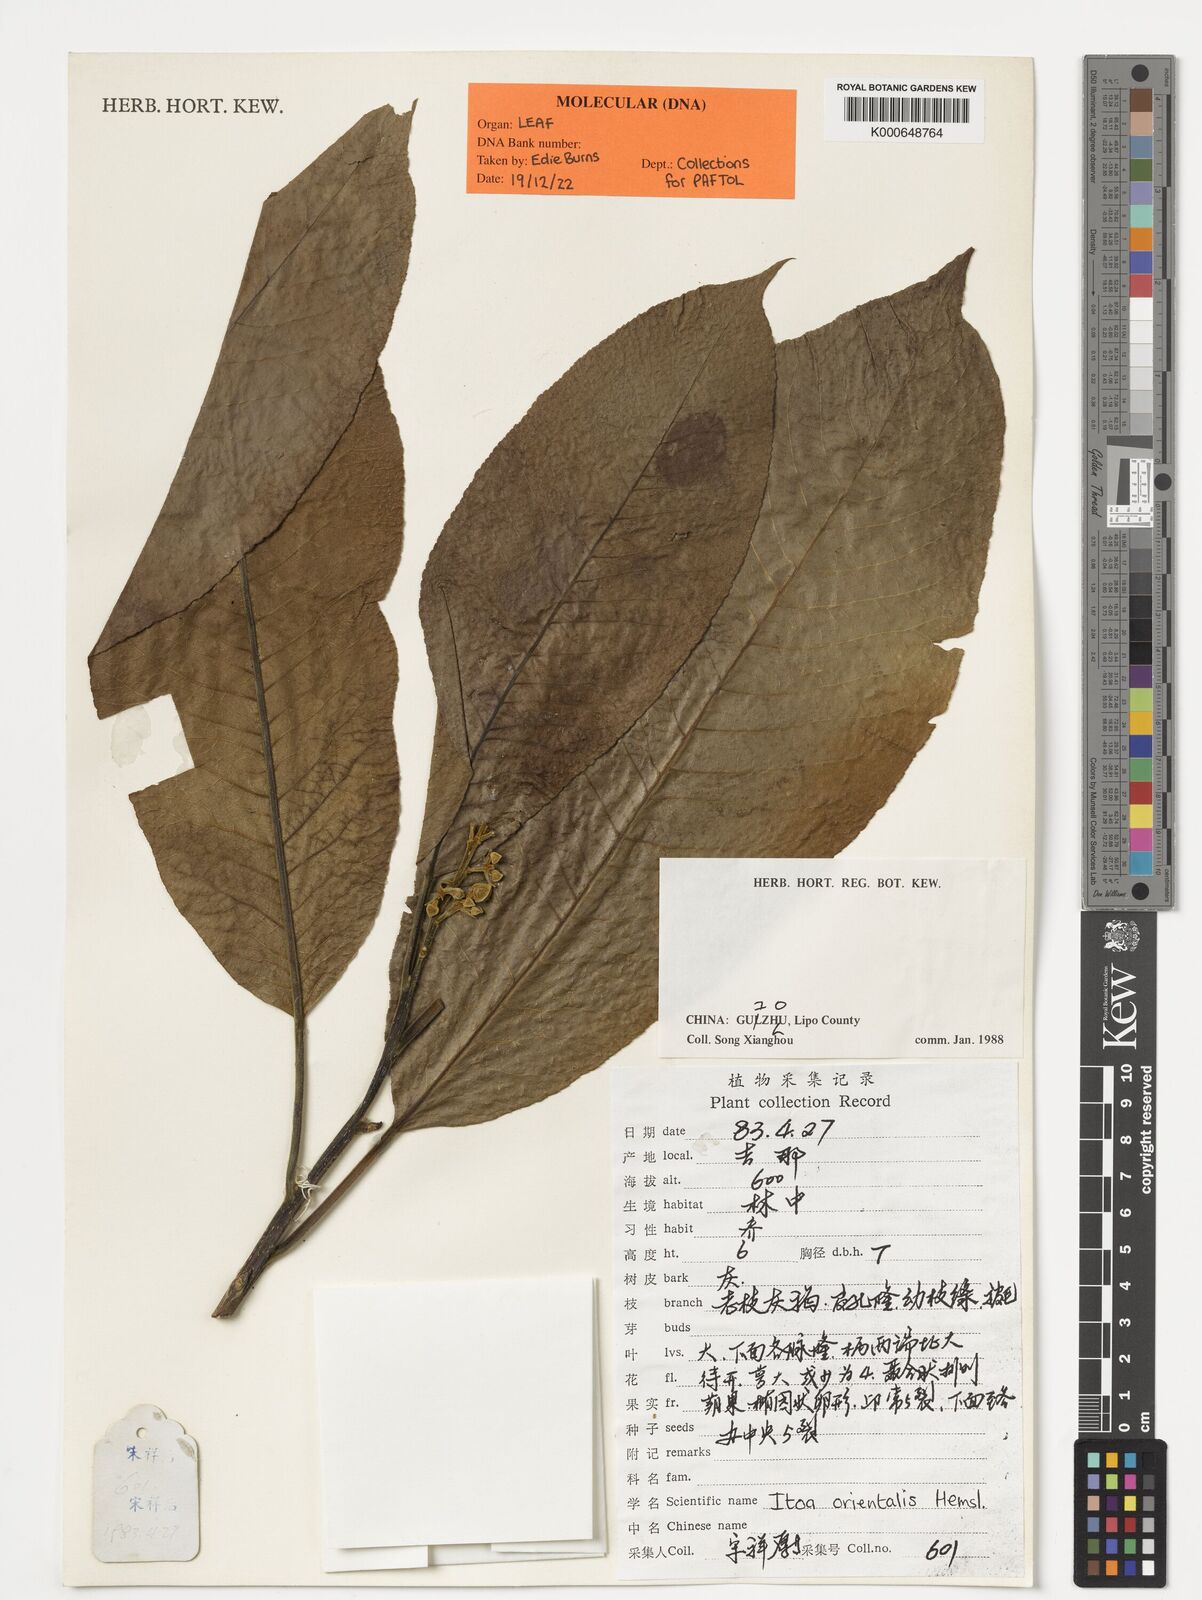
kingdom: Plantae
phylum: Tracheophyta
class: Magnoliopsida
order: Malpighiales
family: Salicaceae
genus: Itoa
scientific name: Itoa orientalis
